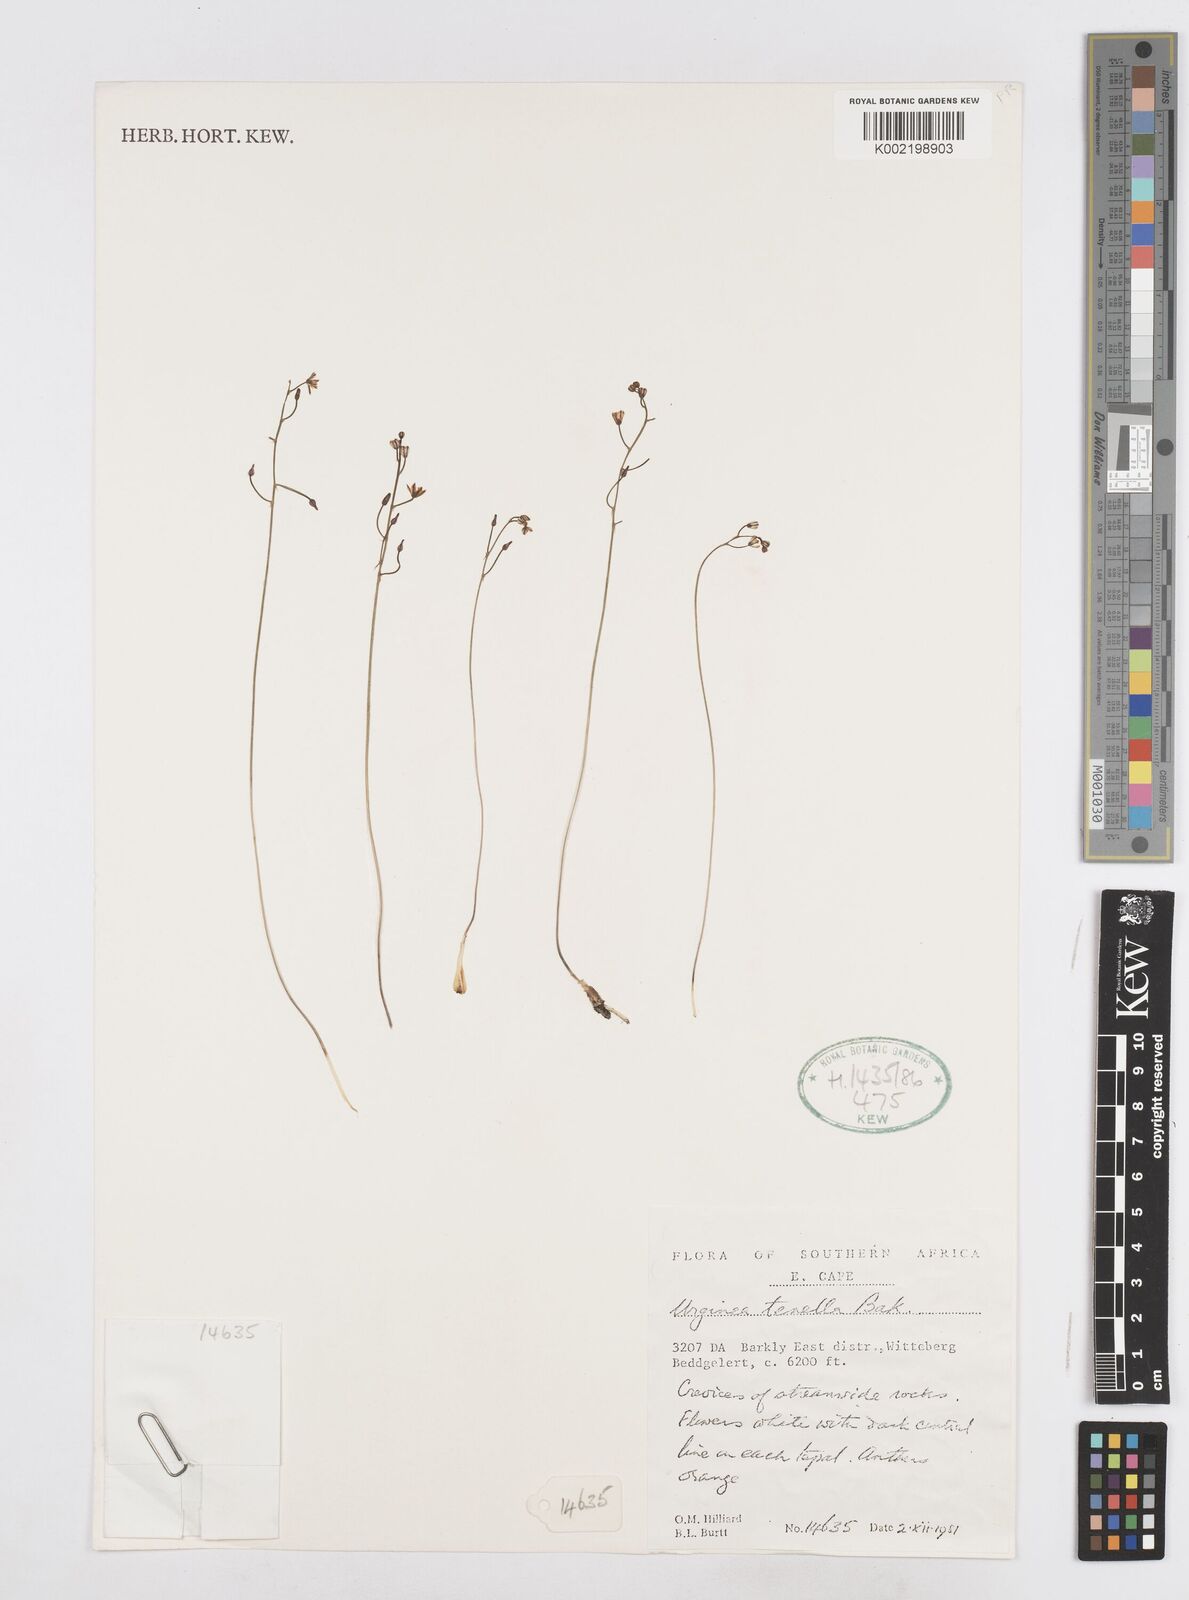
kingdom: Plantae
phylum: Tracheophyta
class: Liliopsida
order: Asparagales
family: Asparagaceae
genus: Drimia
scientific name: Drimia
